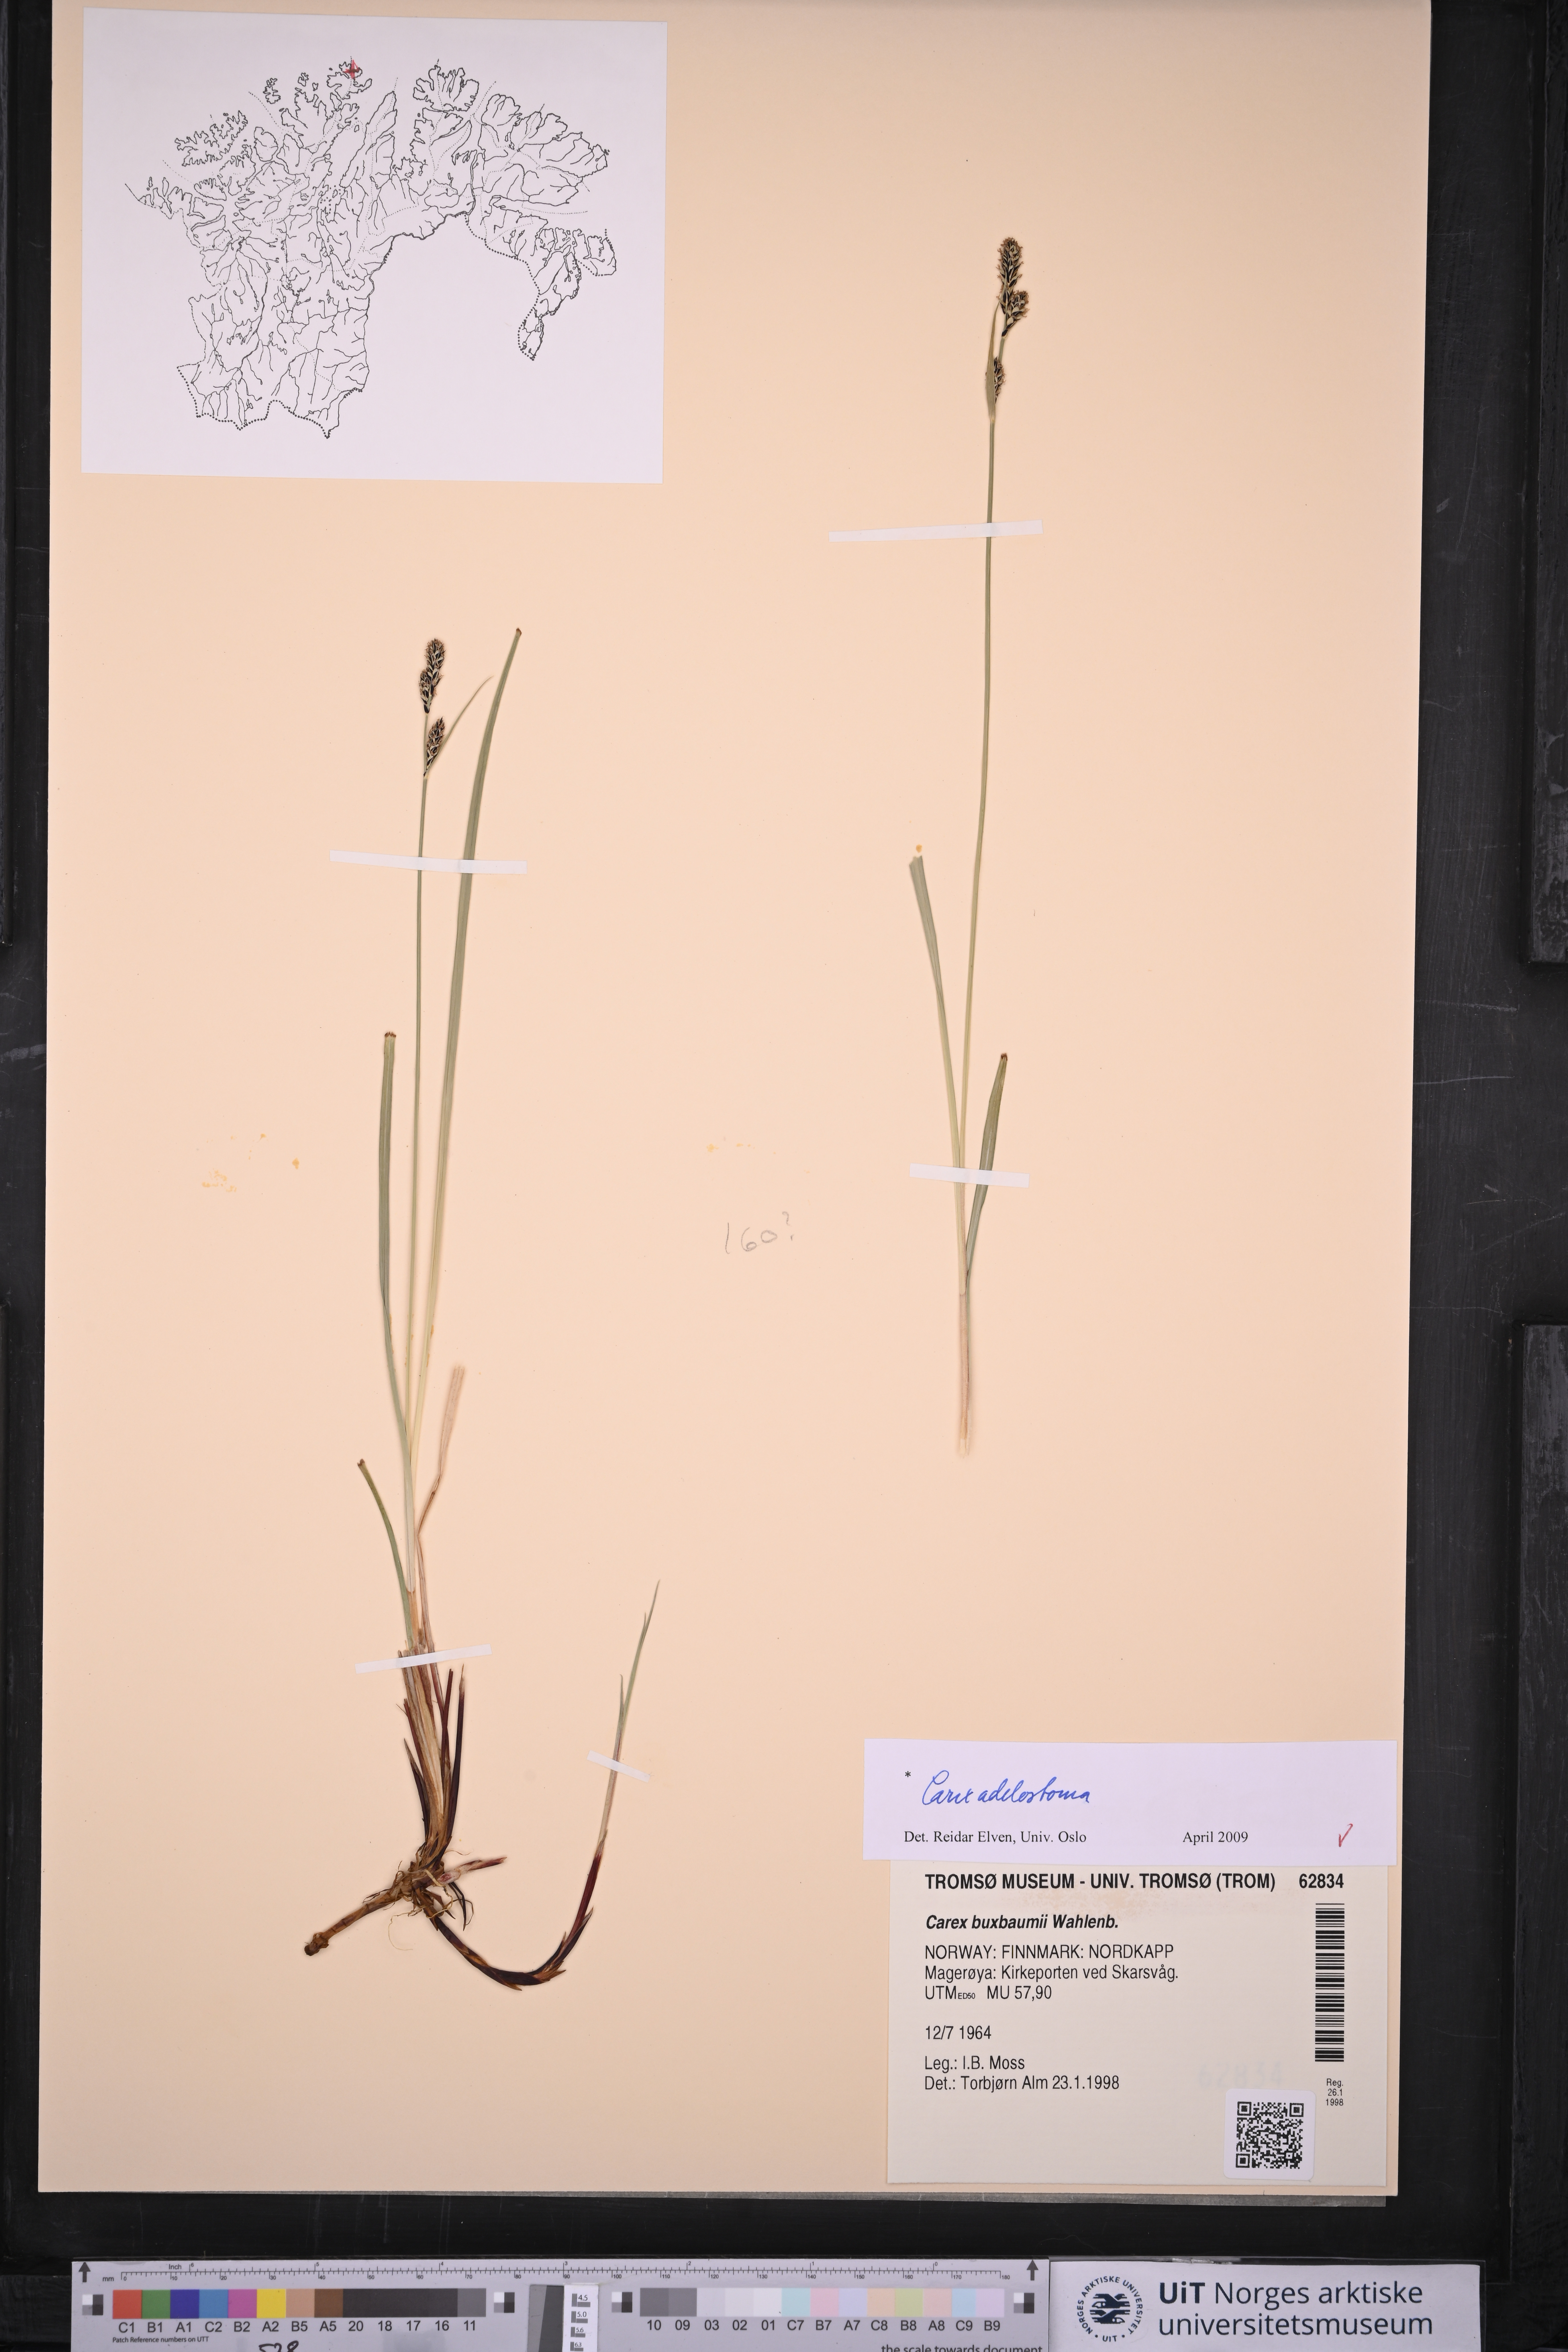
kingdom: Plantae
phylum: Tracheophyta
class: Liliopsida
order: Poales
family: Cyperaceae
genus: Carex
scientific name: Carex adelostoma
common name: Circumpolar sedge
